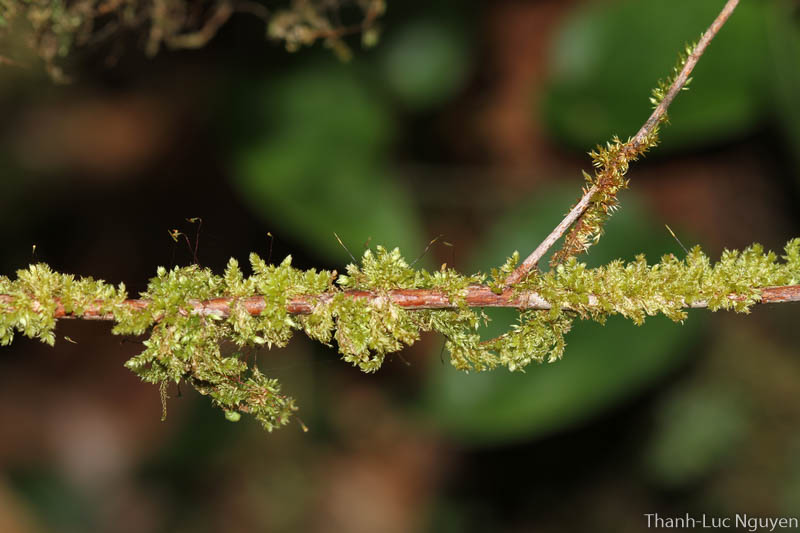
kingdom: Plantae
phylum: Bryophyta
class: Bryopsida
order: Hypnales
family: Sematophyllaceae
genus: Papillidiopsis
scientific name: Papillidiopsis macrosticta
